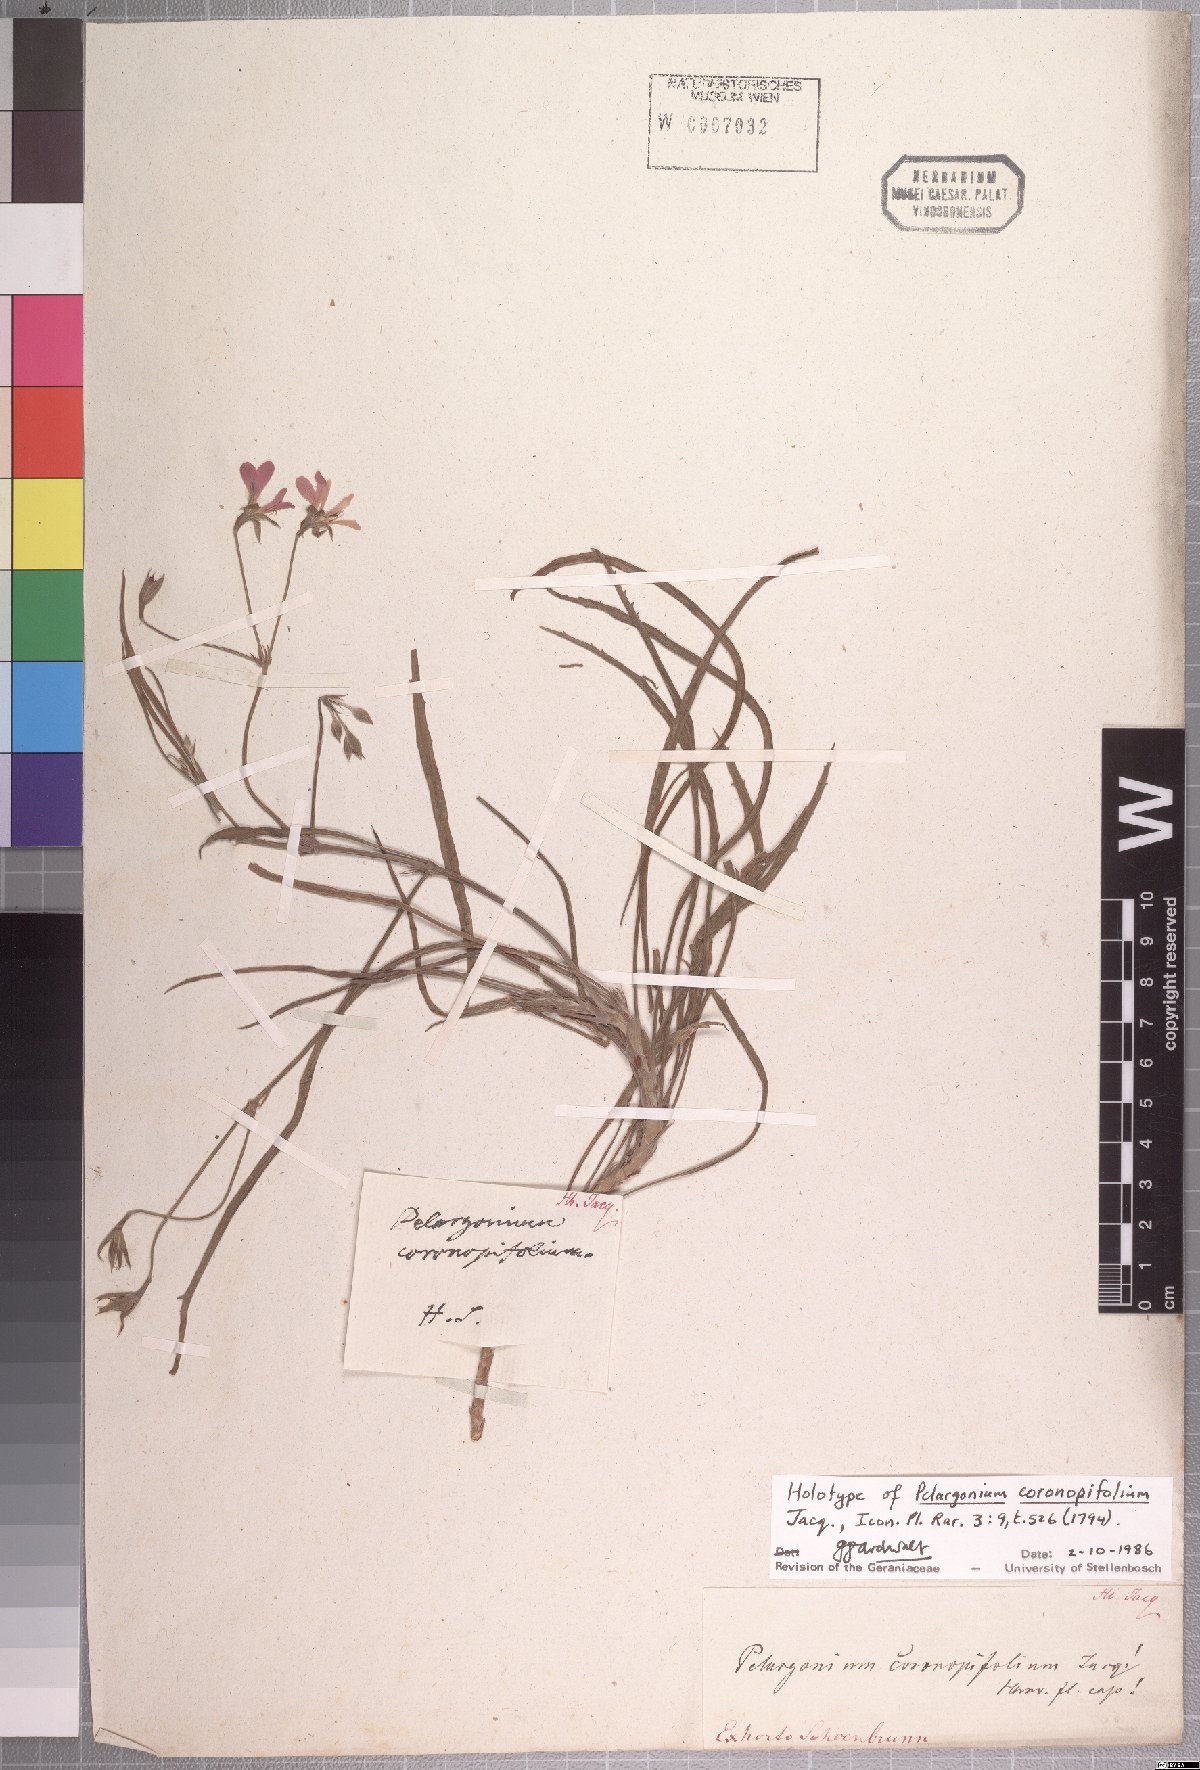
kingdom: Plantae
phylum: Tracheophyta
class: Magnoliopsida
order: Geraniales
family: Geraniaceae
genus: Pelargonium
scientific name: Pelargonium coronopifolium
